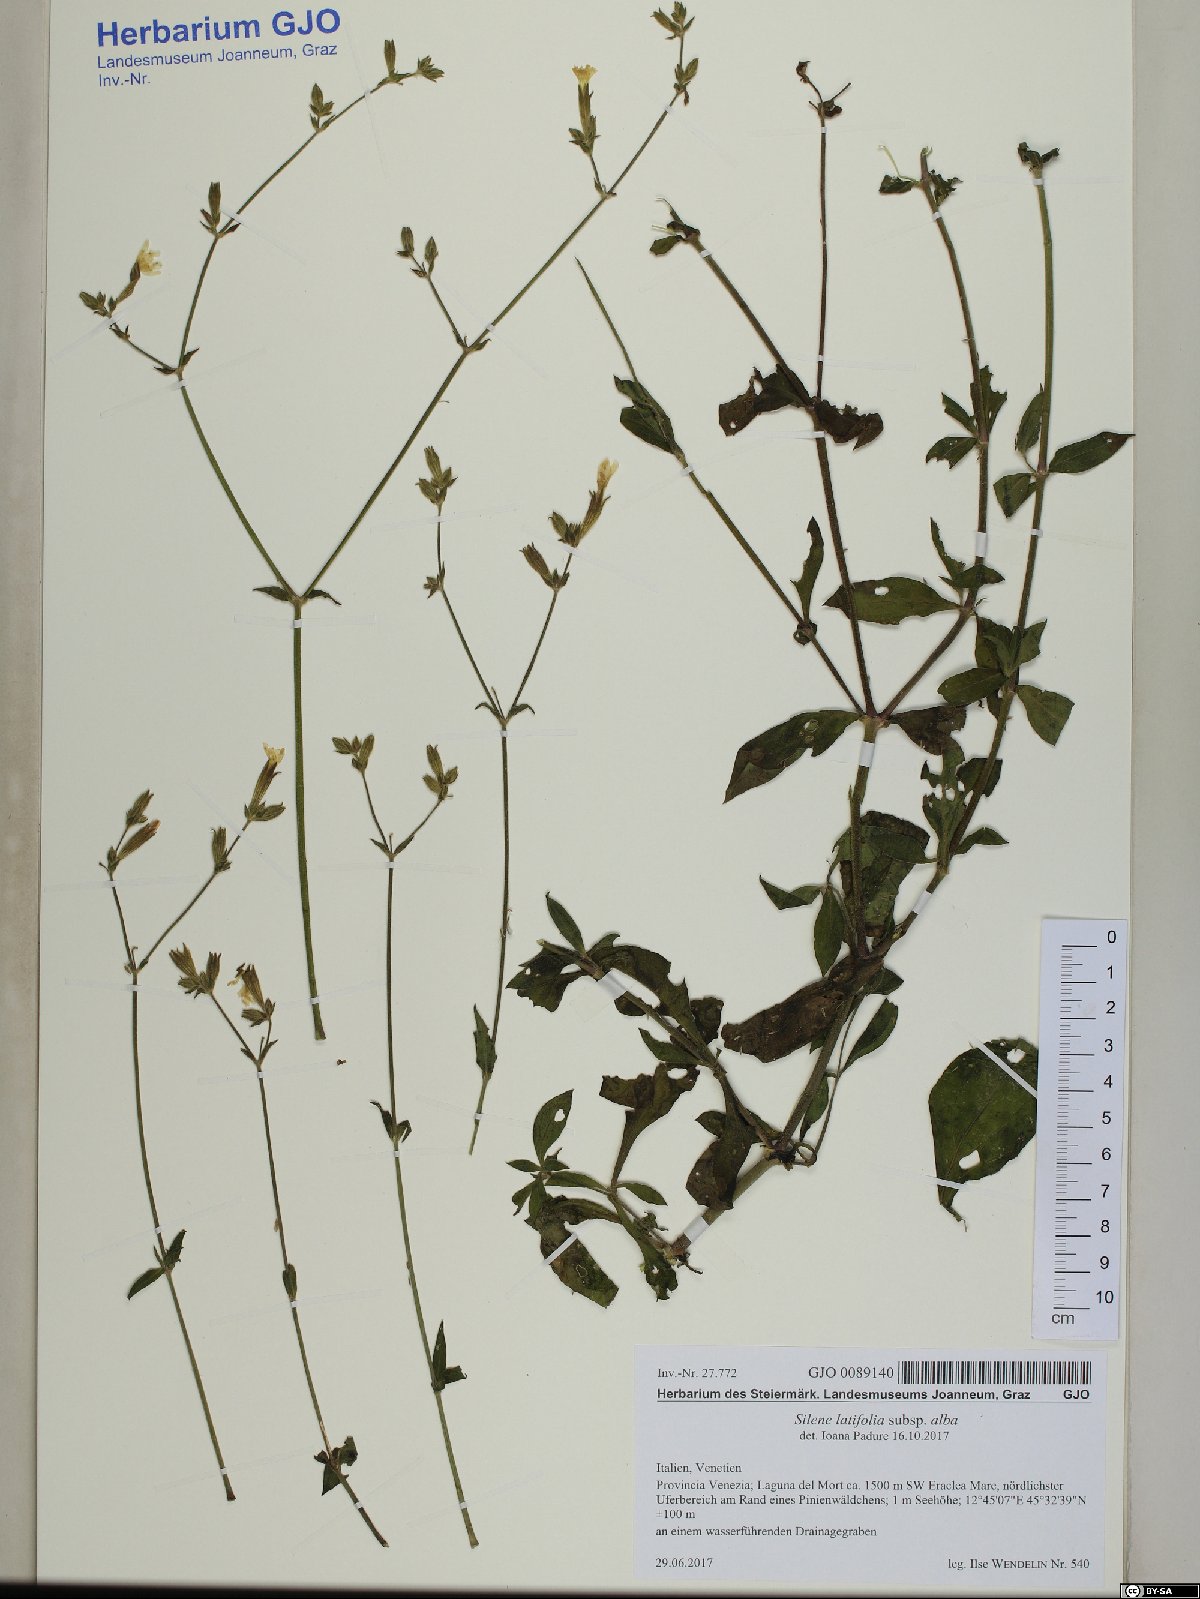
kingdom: Plantae
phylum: Tracheophyta
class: Magnoliopsida
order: Caryophyllales
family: Caryophyllaceae
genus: Silene
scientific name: Silene latifolia
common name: White campion
